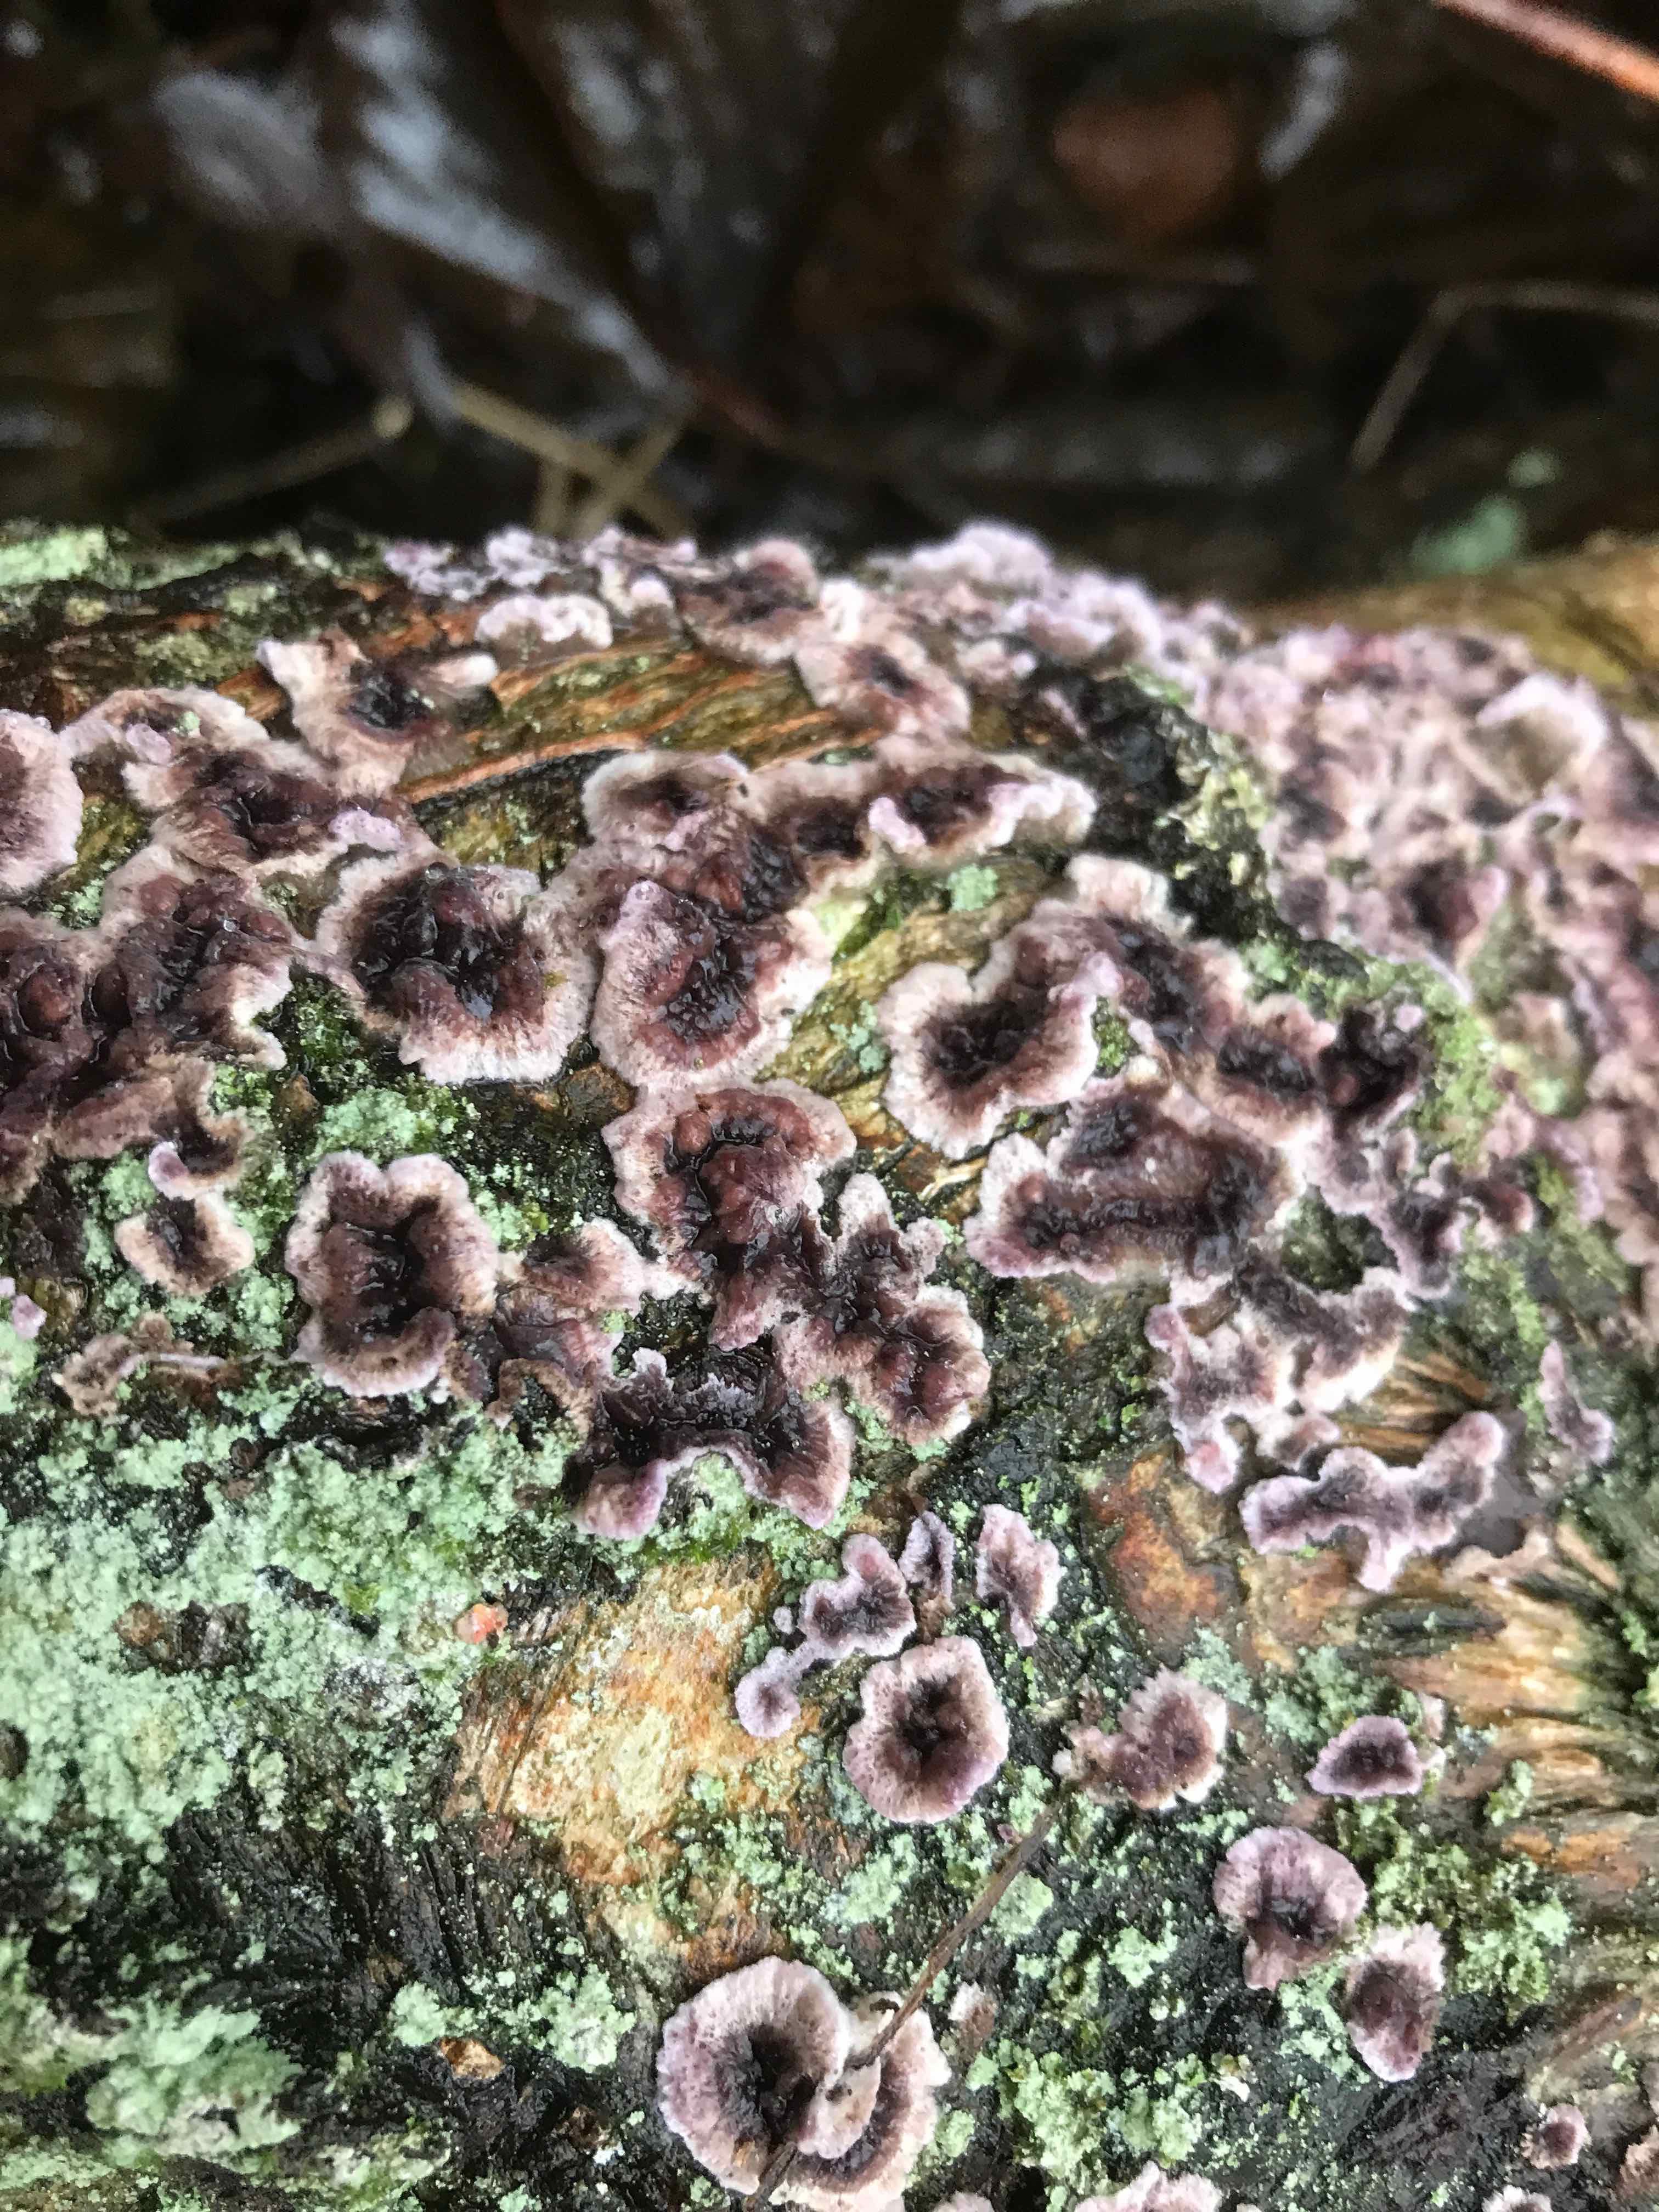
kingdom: Fungi
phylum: Basidiomycota
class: Agaricomycetes
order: Agaricales
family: Cyphellaceae
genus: Chondrostereum
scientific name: Chondrostereum purpureum
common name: purpurlædersvamp
